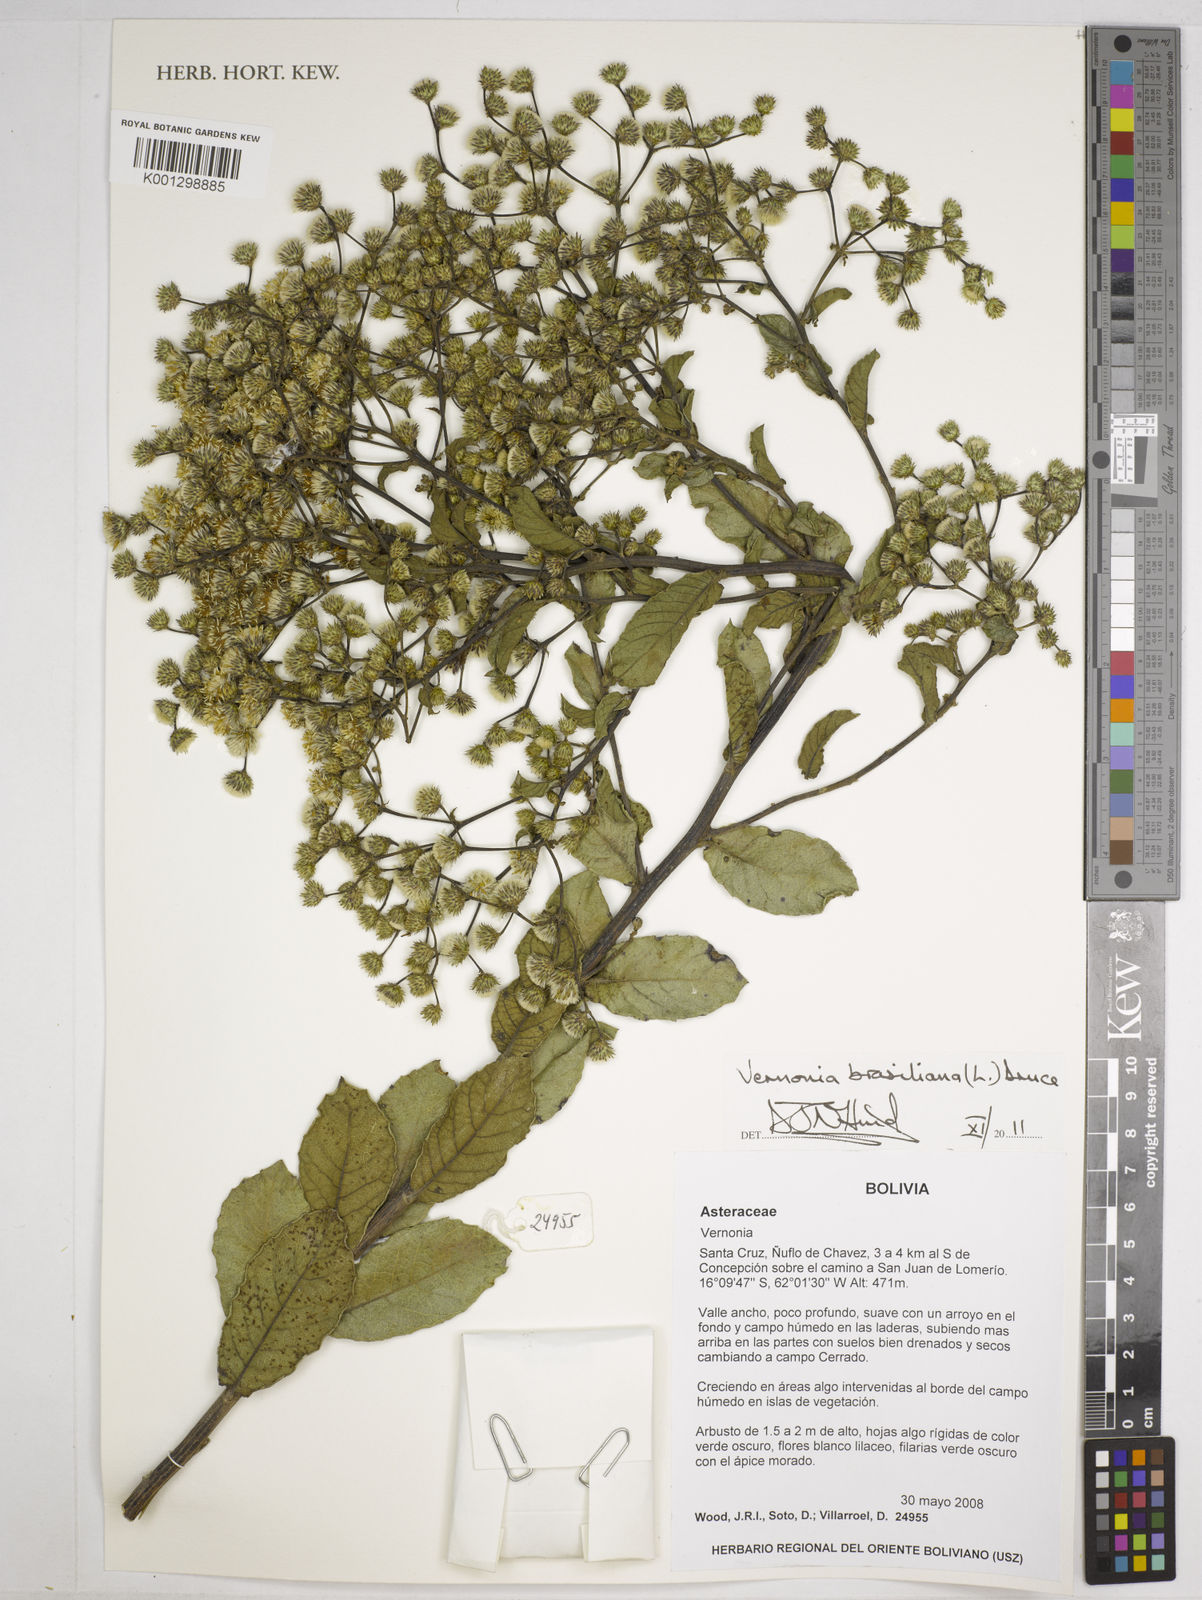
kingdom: Plantae
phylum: Tracheophyta
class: Magnoliopsida
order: Asterales
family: Asteraceae
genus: Vernonanthura
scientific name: Vernonanthura brasiliana
